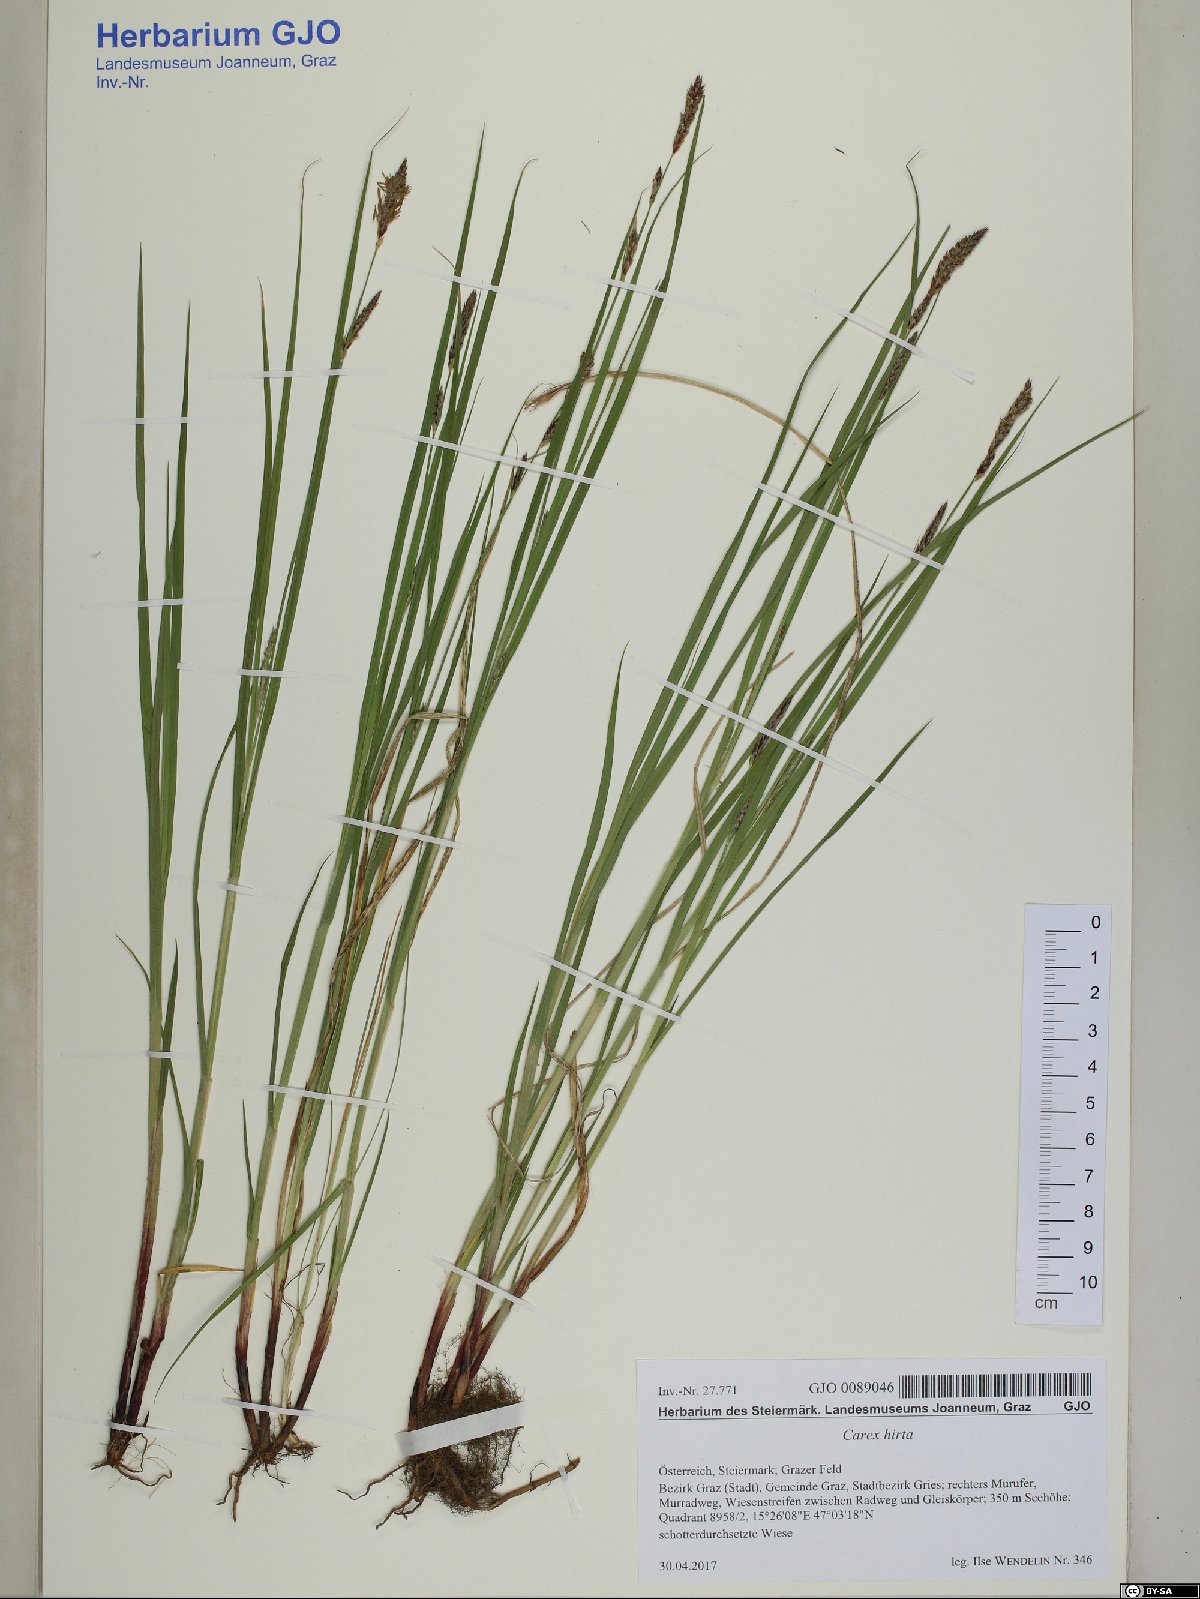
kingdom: Plantae
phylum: Tracheophyta
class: Liliopsida
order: Poales
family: Cyperaceae
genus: Carex
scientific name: Carex hirta
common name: Hairy sedge
